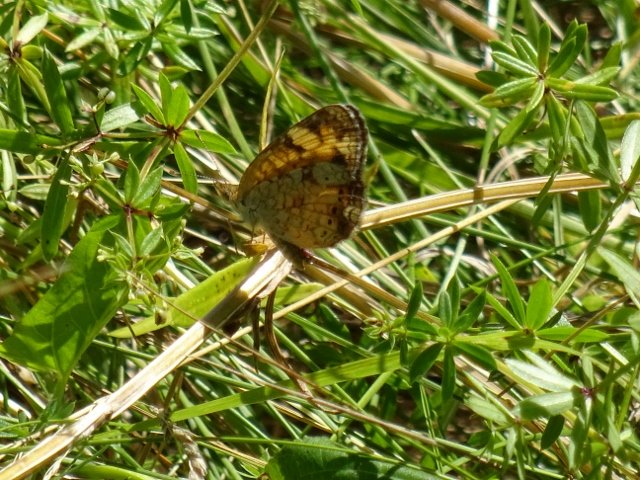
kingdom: Animalia
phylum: Arthropoda
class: Insecta
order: Lepidoptera
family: Nymphalidae
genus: Phyciodes
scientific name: Phyciodes tharos
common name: Pearl Crescent
